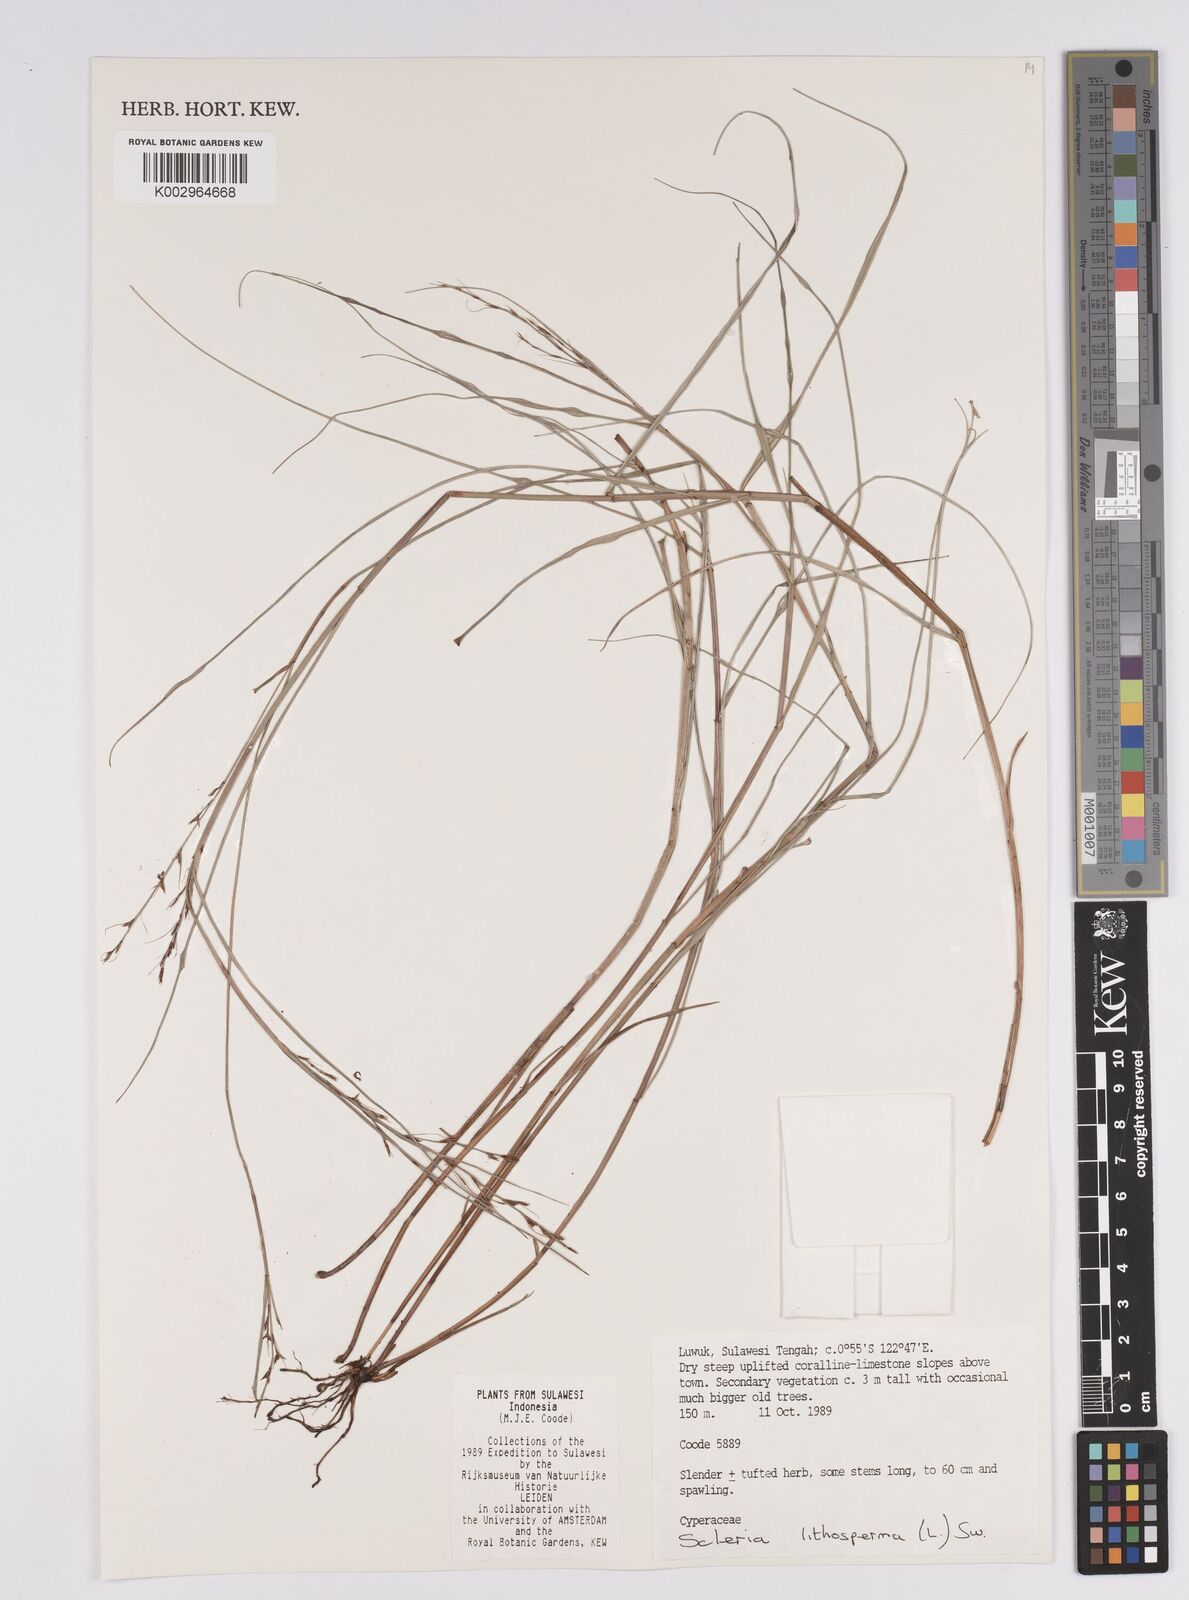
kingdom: Plantae
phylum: Tracheophyta
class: Liliopsida
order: Poales
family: Cyperaceae
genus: Scleria
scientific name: Scleria lithosperma
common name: Florida keys nut-rush
